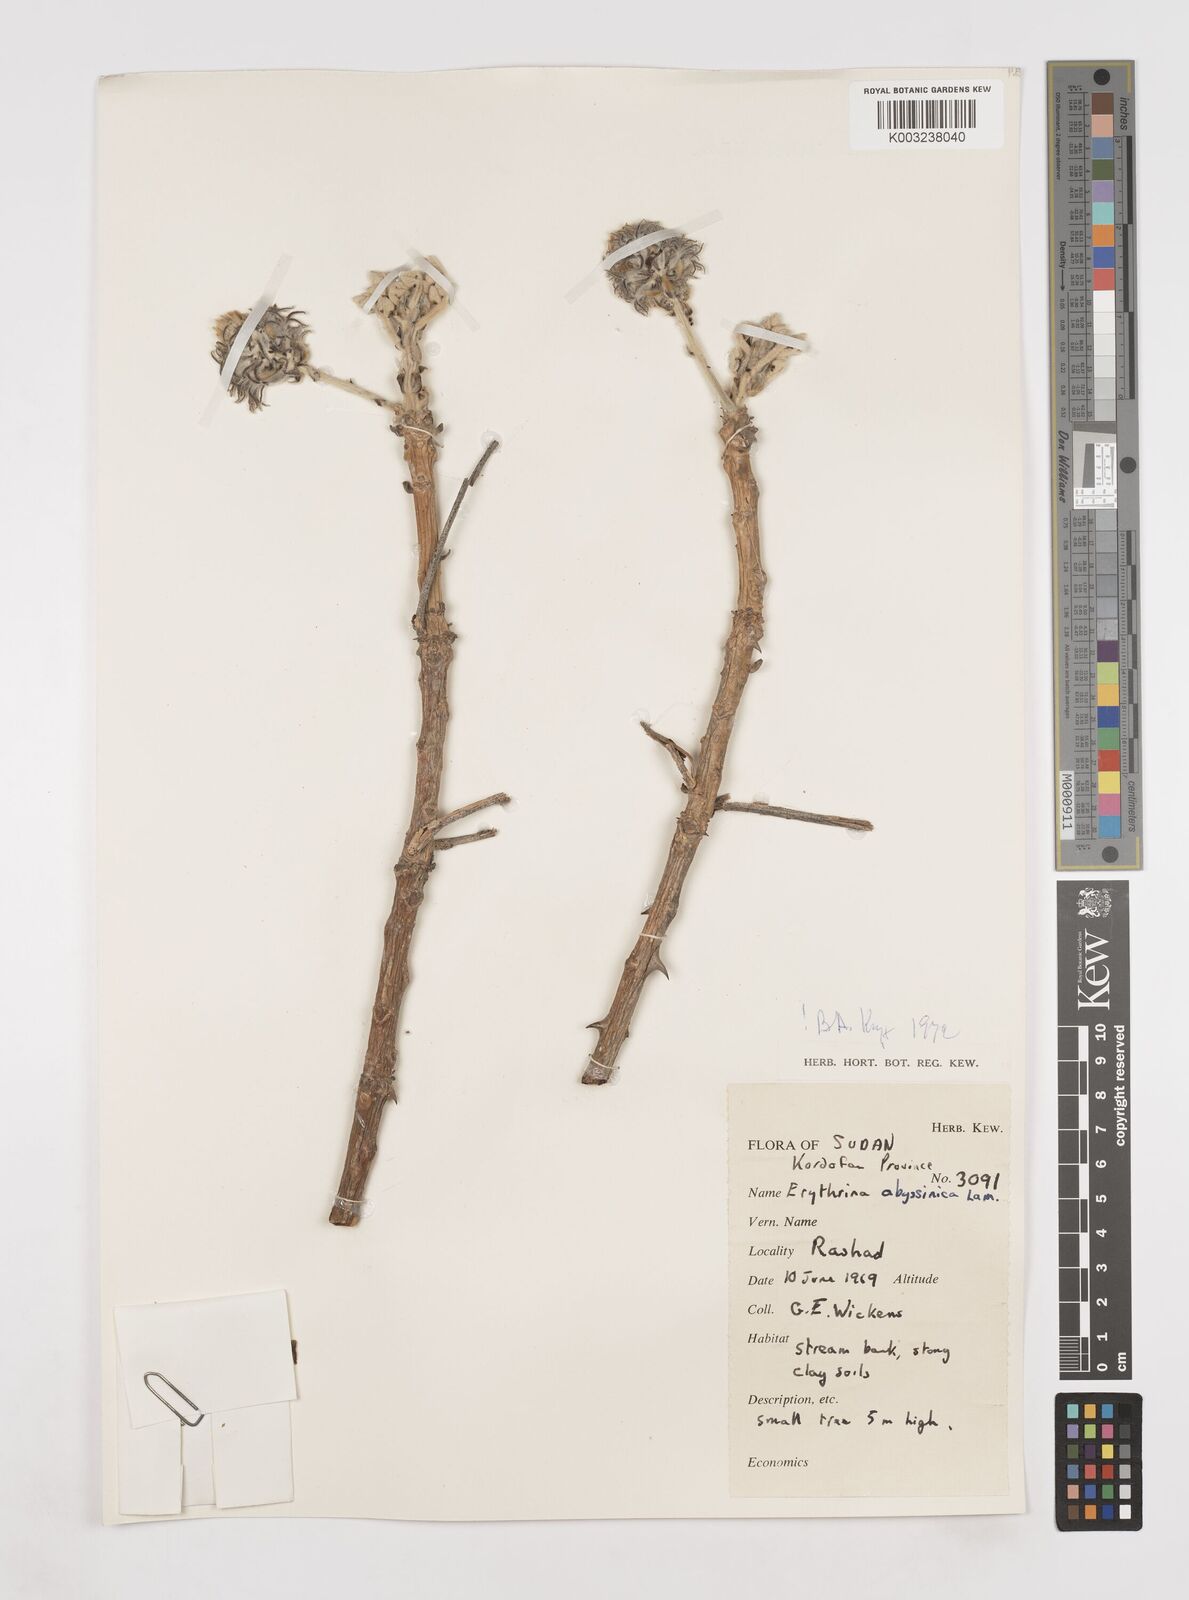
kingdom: Plantae
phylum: Tracheophyta
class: Magnoliopsida
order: Fabales
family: Fabaceae
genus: Erythrina
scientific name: Erythrina abyssinica
